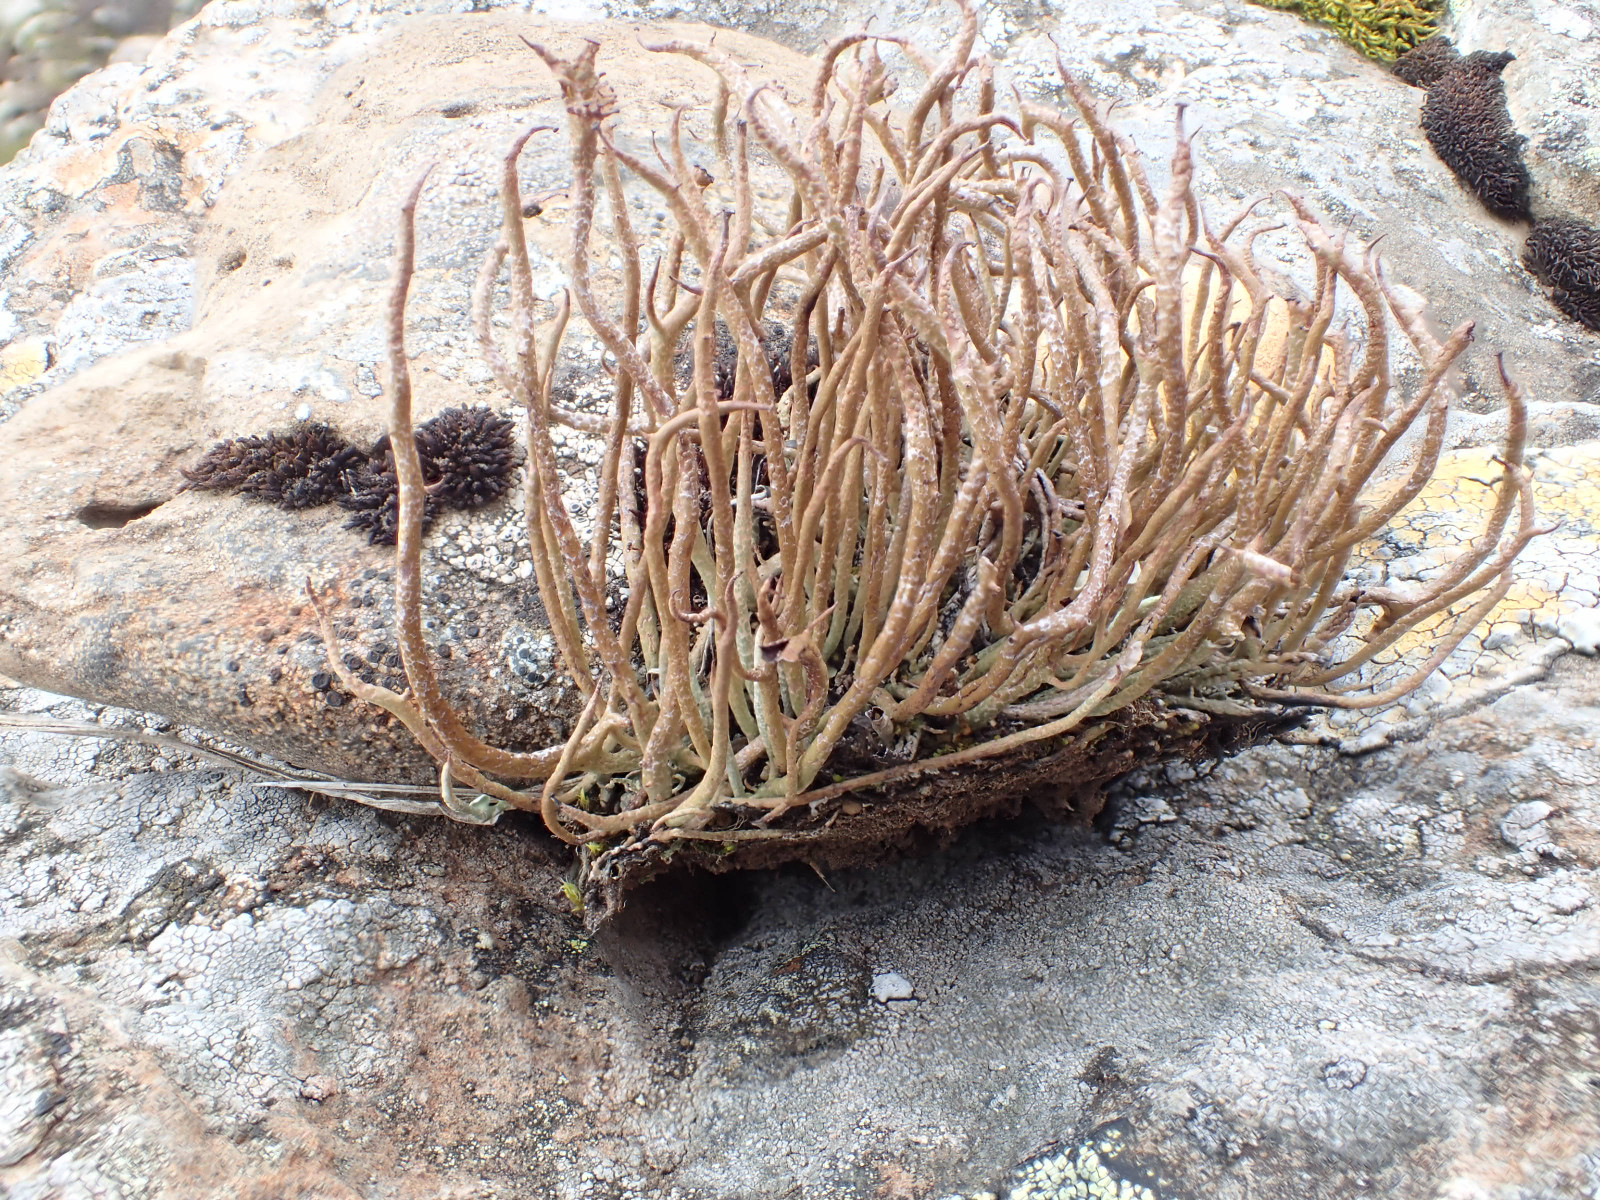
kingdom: Fungi
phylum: Ascomycota
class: Lecanoromycetes
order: Lecanorales
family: Cladoniaceae
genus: Cladonia
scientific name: Cladonia gracilis
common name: slank bægerlav
